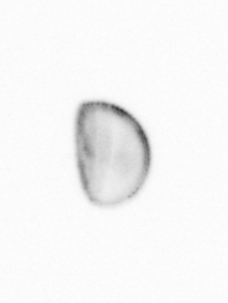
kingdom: Chromista
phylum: Ochrophyta
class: Bacillariophyceae
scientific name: Bacillariophyceae
